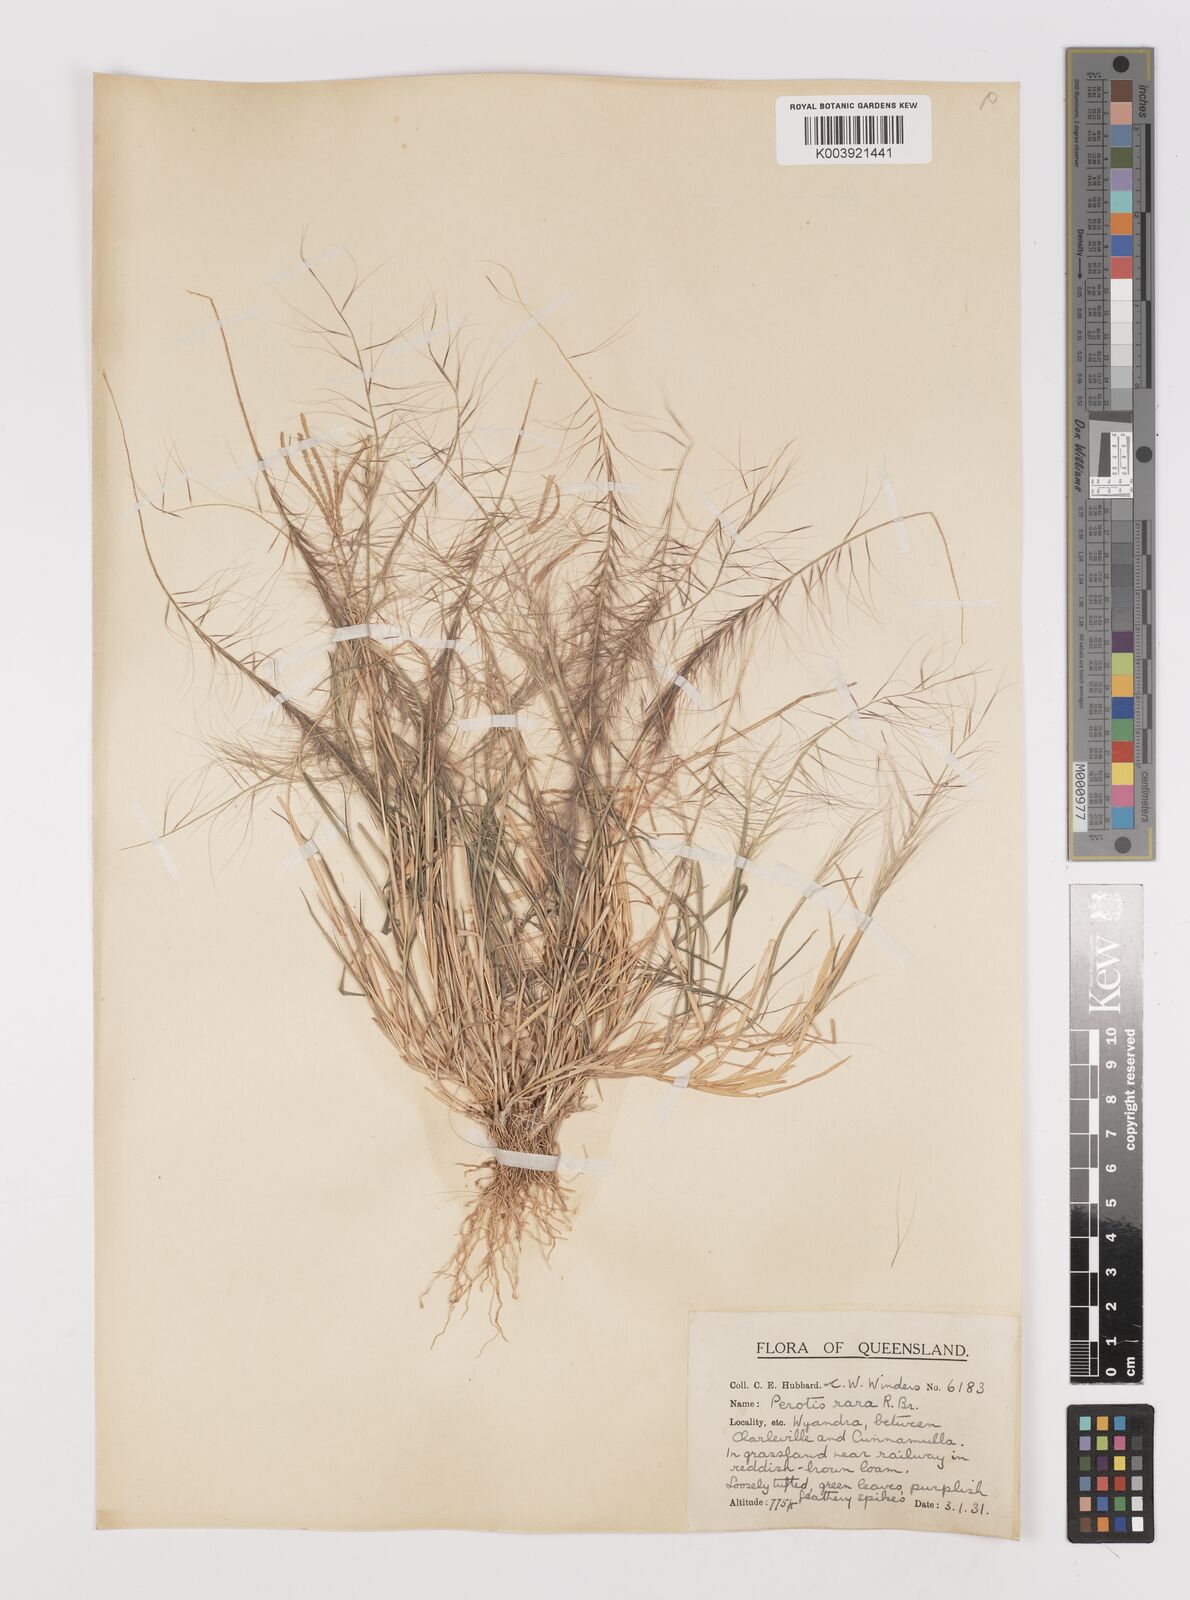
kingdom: Plantae
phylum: Tracheophyta
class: Liliopsida
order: Poales
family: Poaceae
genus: Perotis
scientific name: Perotis rara
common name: Comet grass
